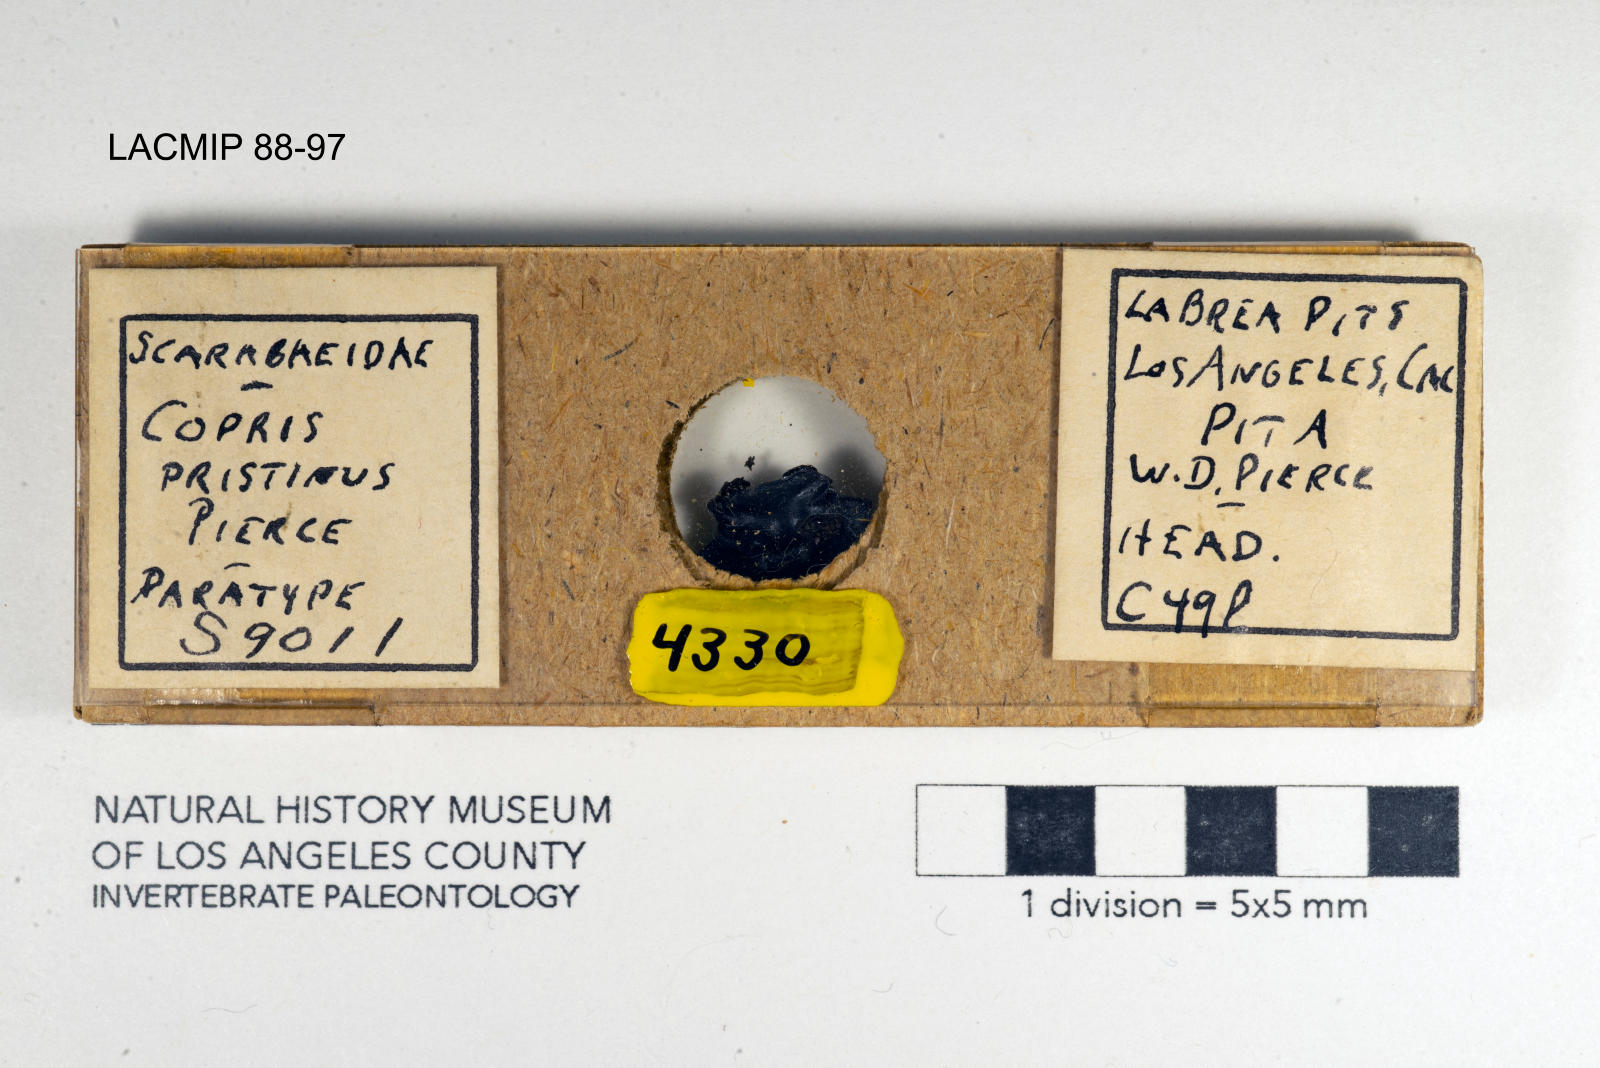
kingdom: Animalia
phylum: Arthropoda
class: Insecta
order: Coleoptera
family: Scarabaeidae
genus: Copris
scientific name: Copris pristinus
